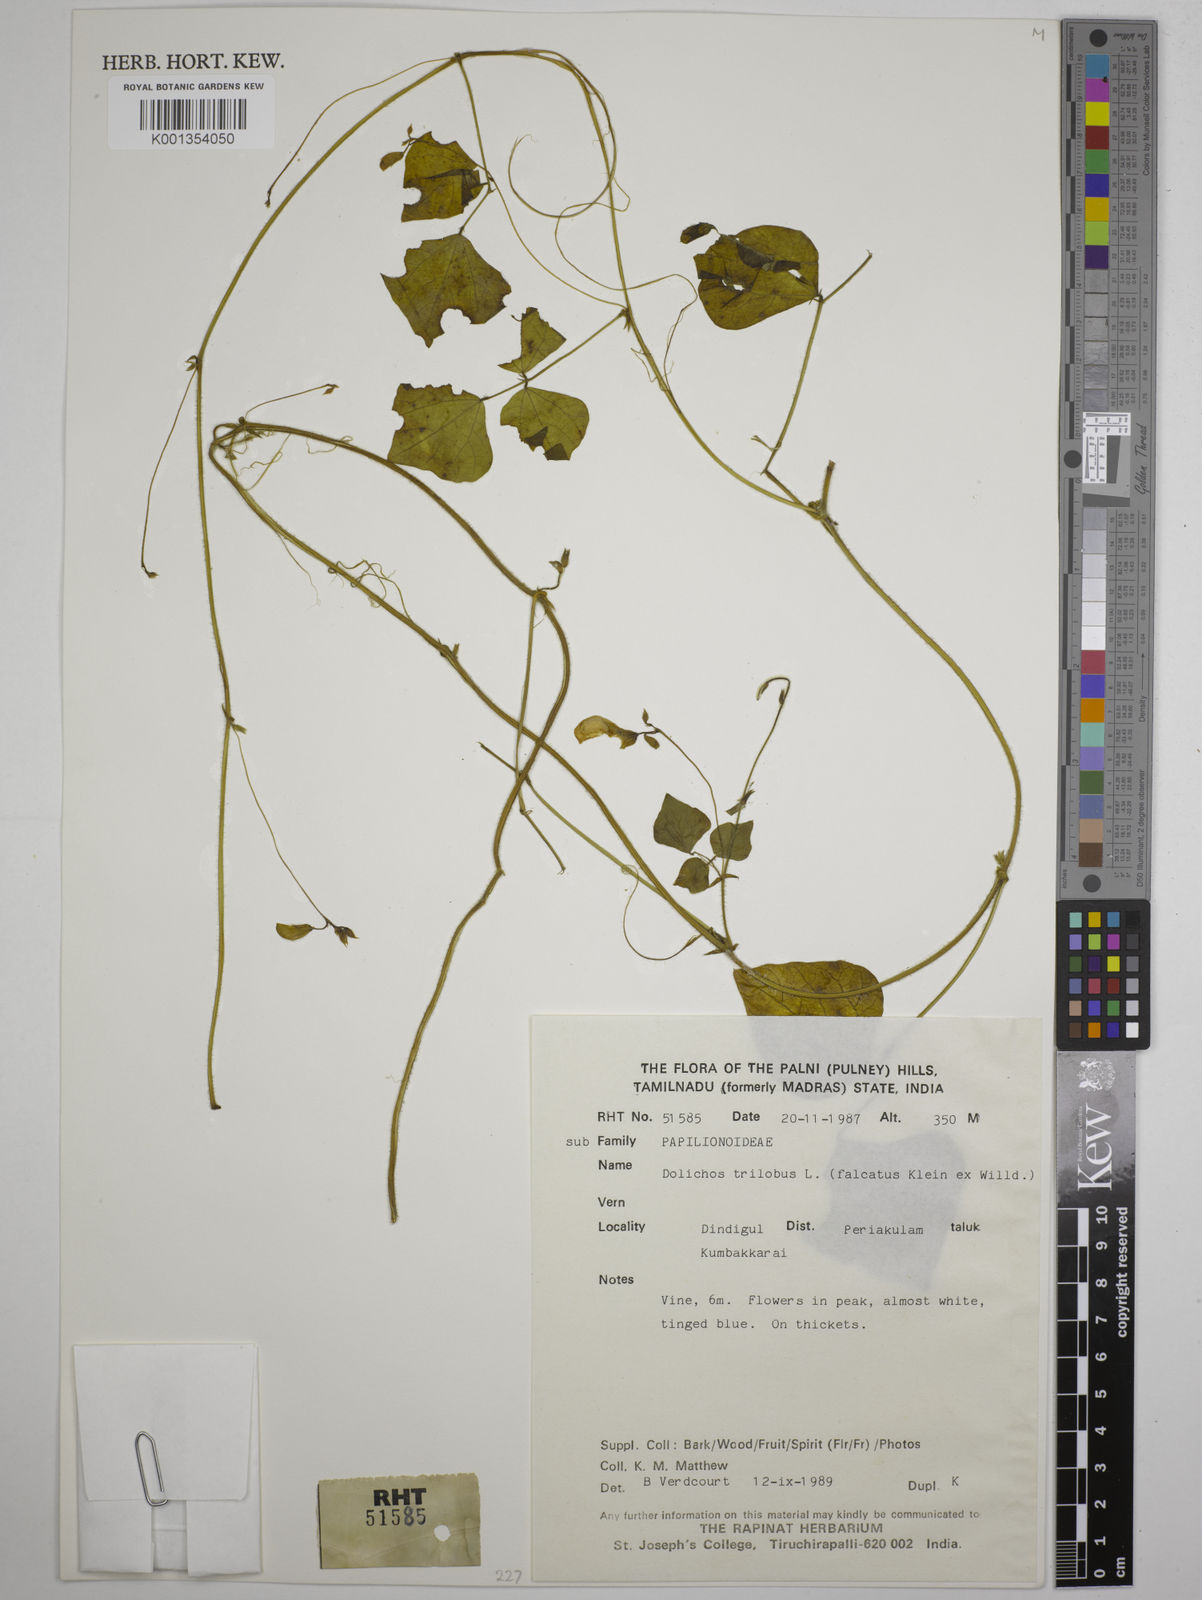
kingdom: Plantae
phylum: Tracheophyta
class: Magnoliopsida
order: Fabales
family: Fabaceae
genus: Dolichos
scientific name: Dolichos
